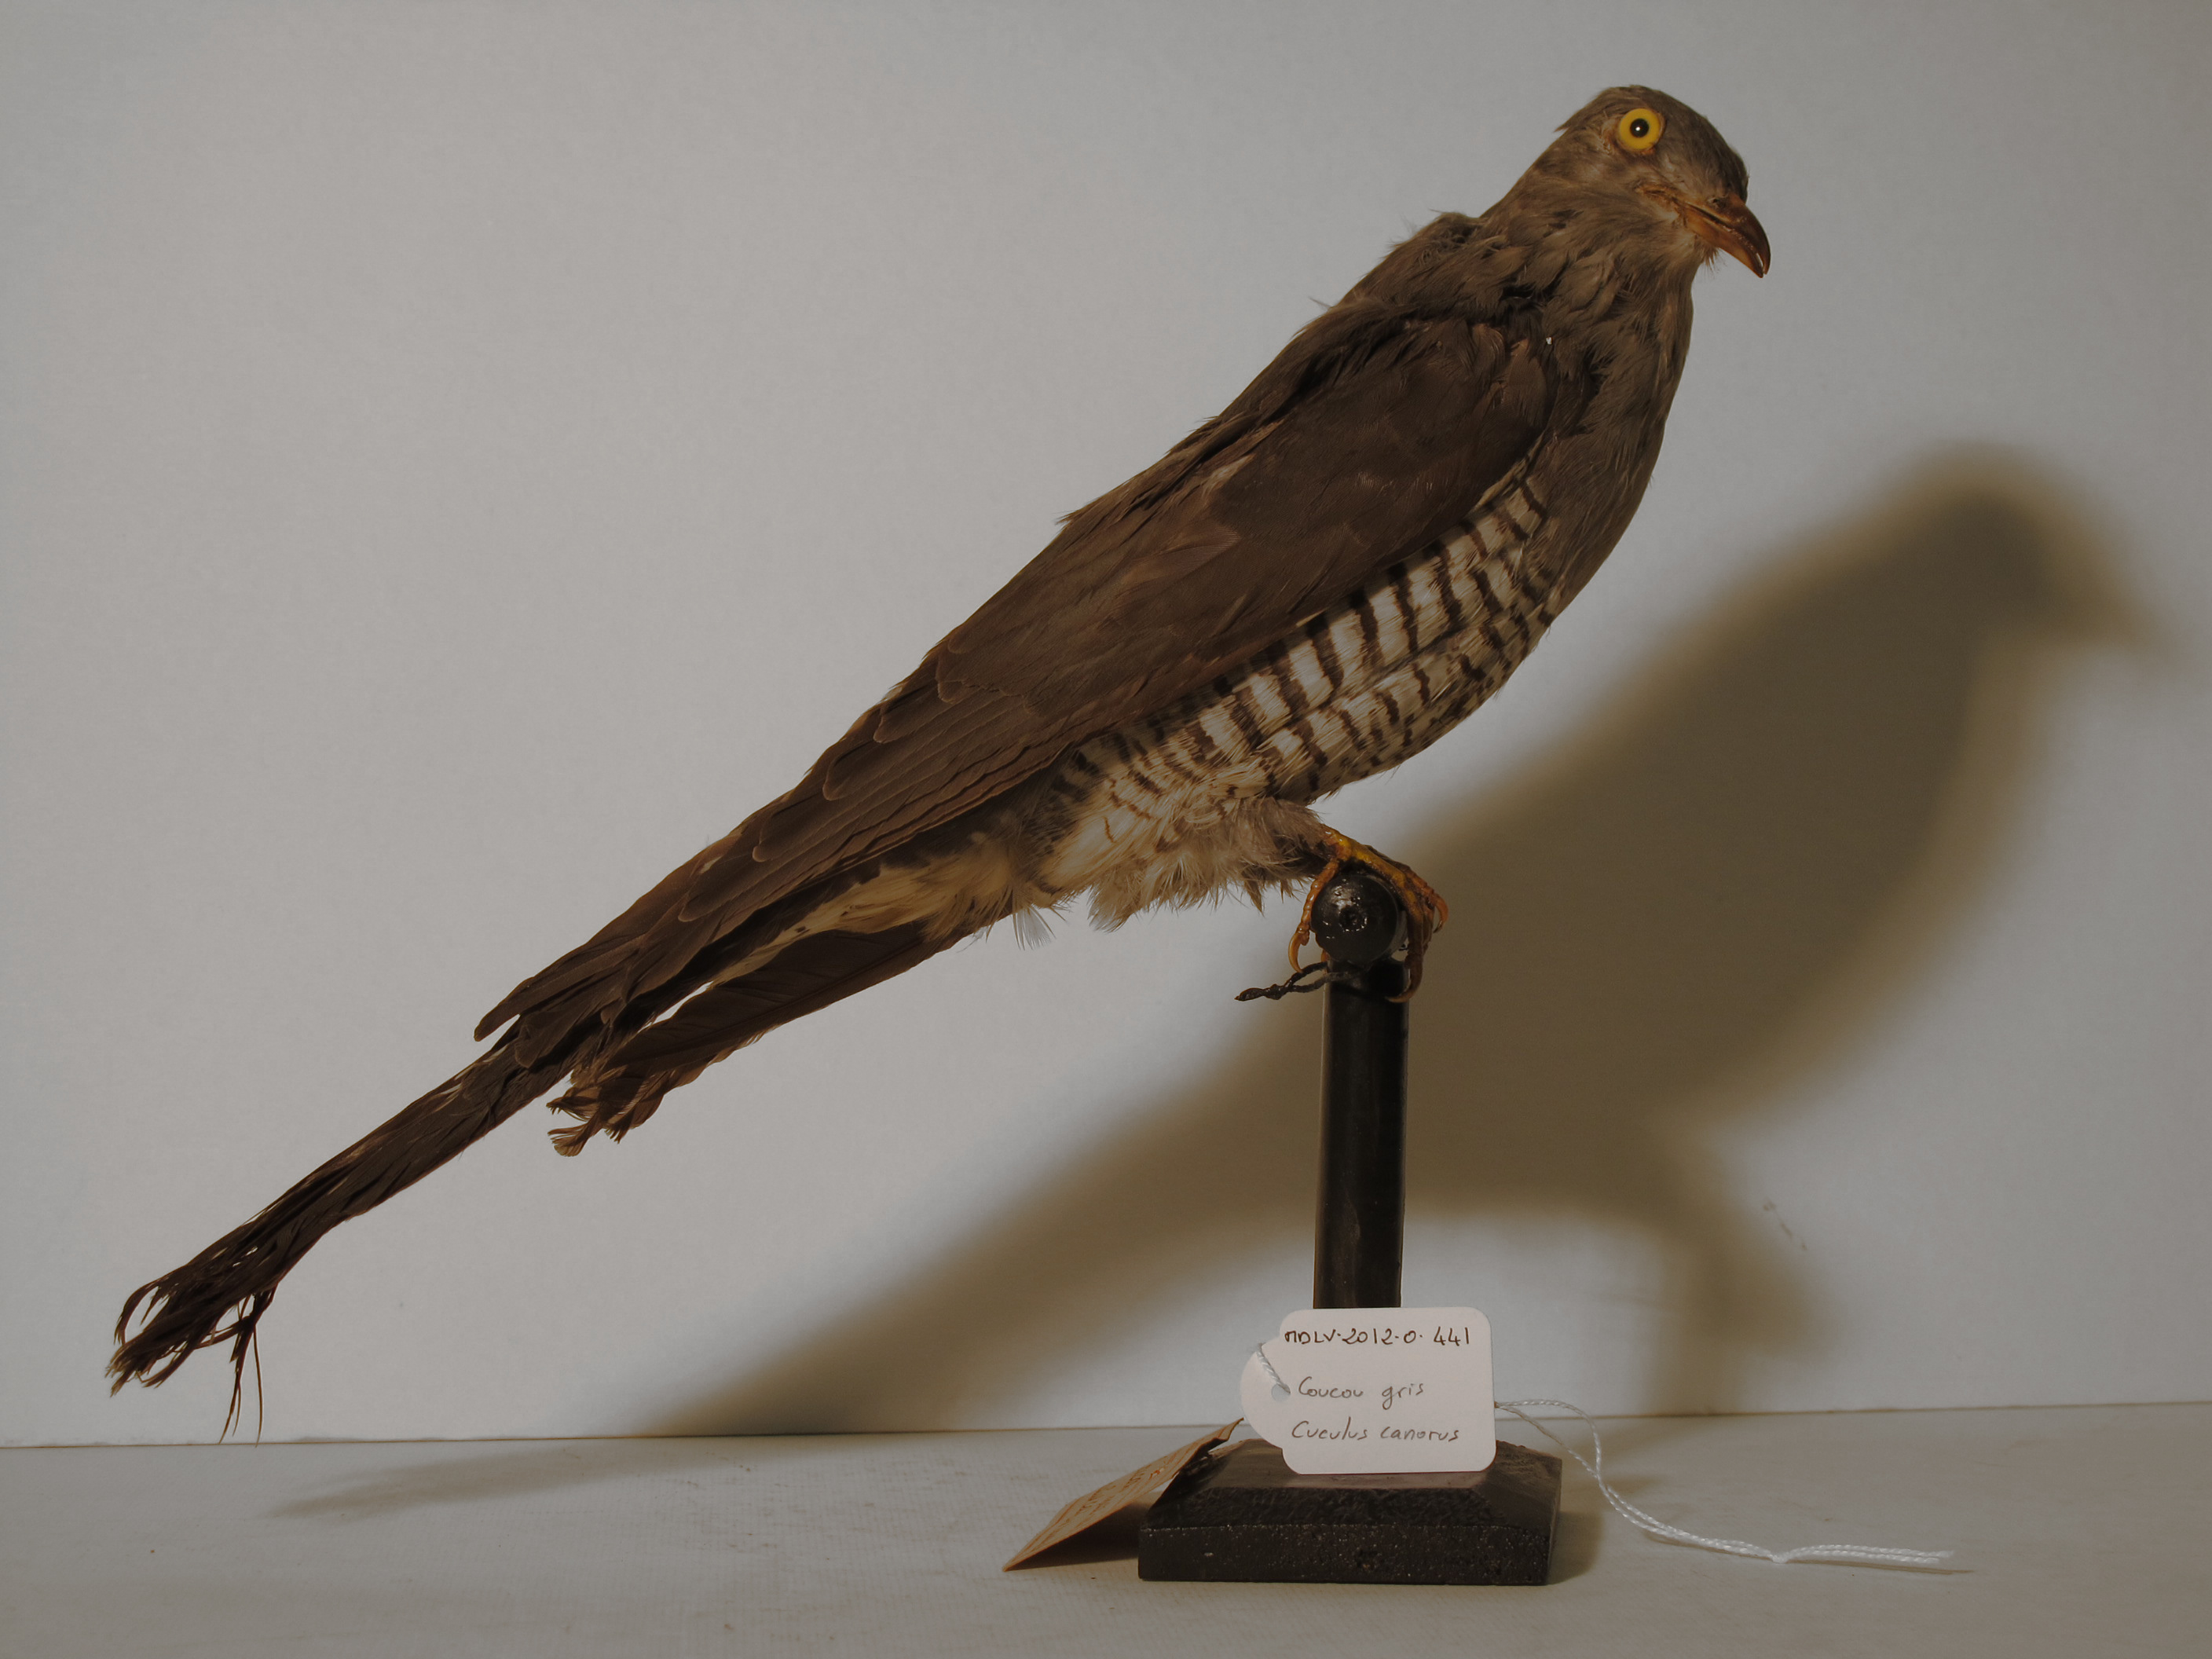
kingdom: Animalia
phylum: Chordata
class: Aves
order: Cuculiformes
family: Cuculidae
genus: Cuculus
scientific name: Cuculus canorus
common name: Common Cuckoo
